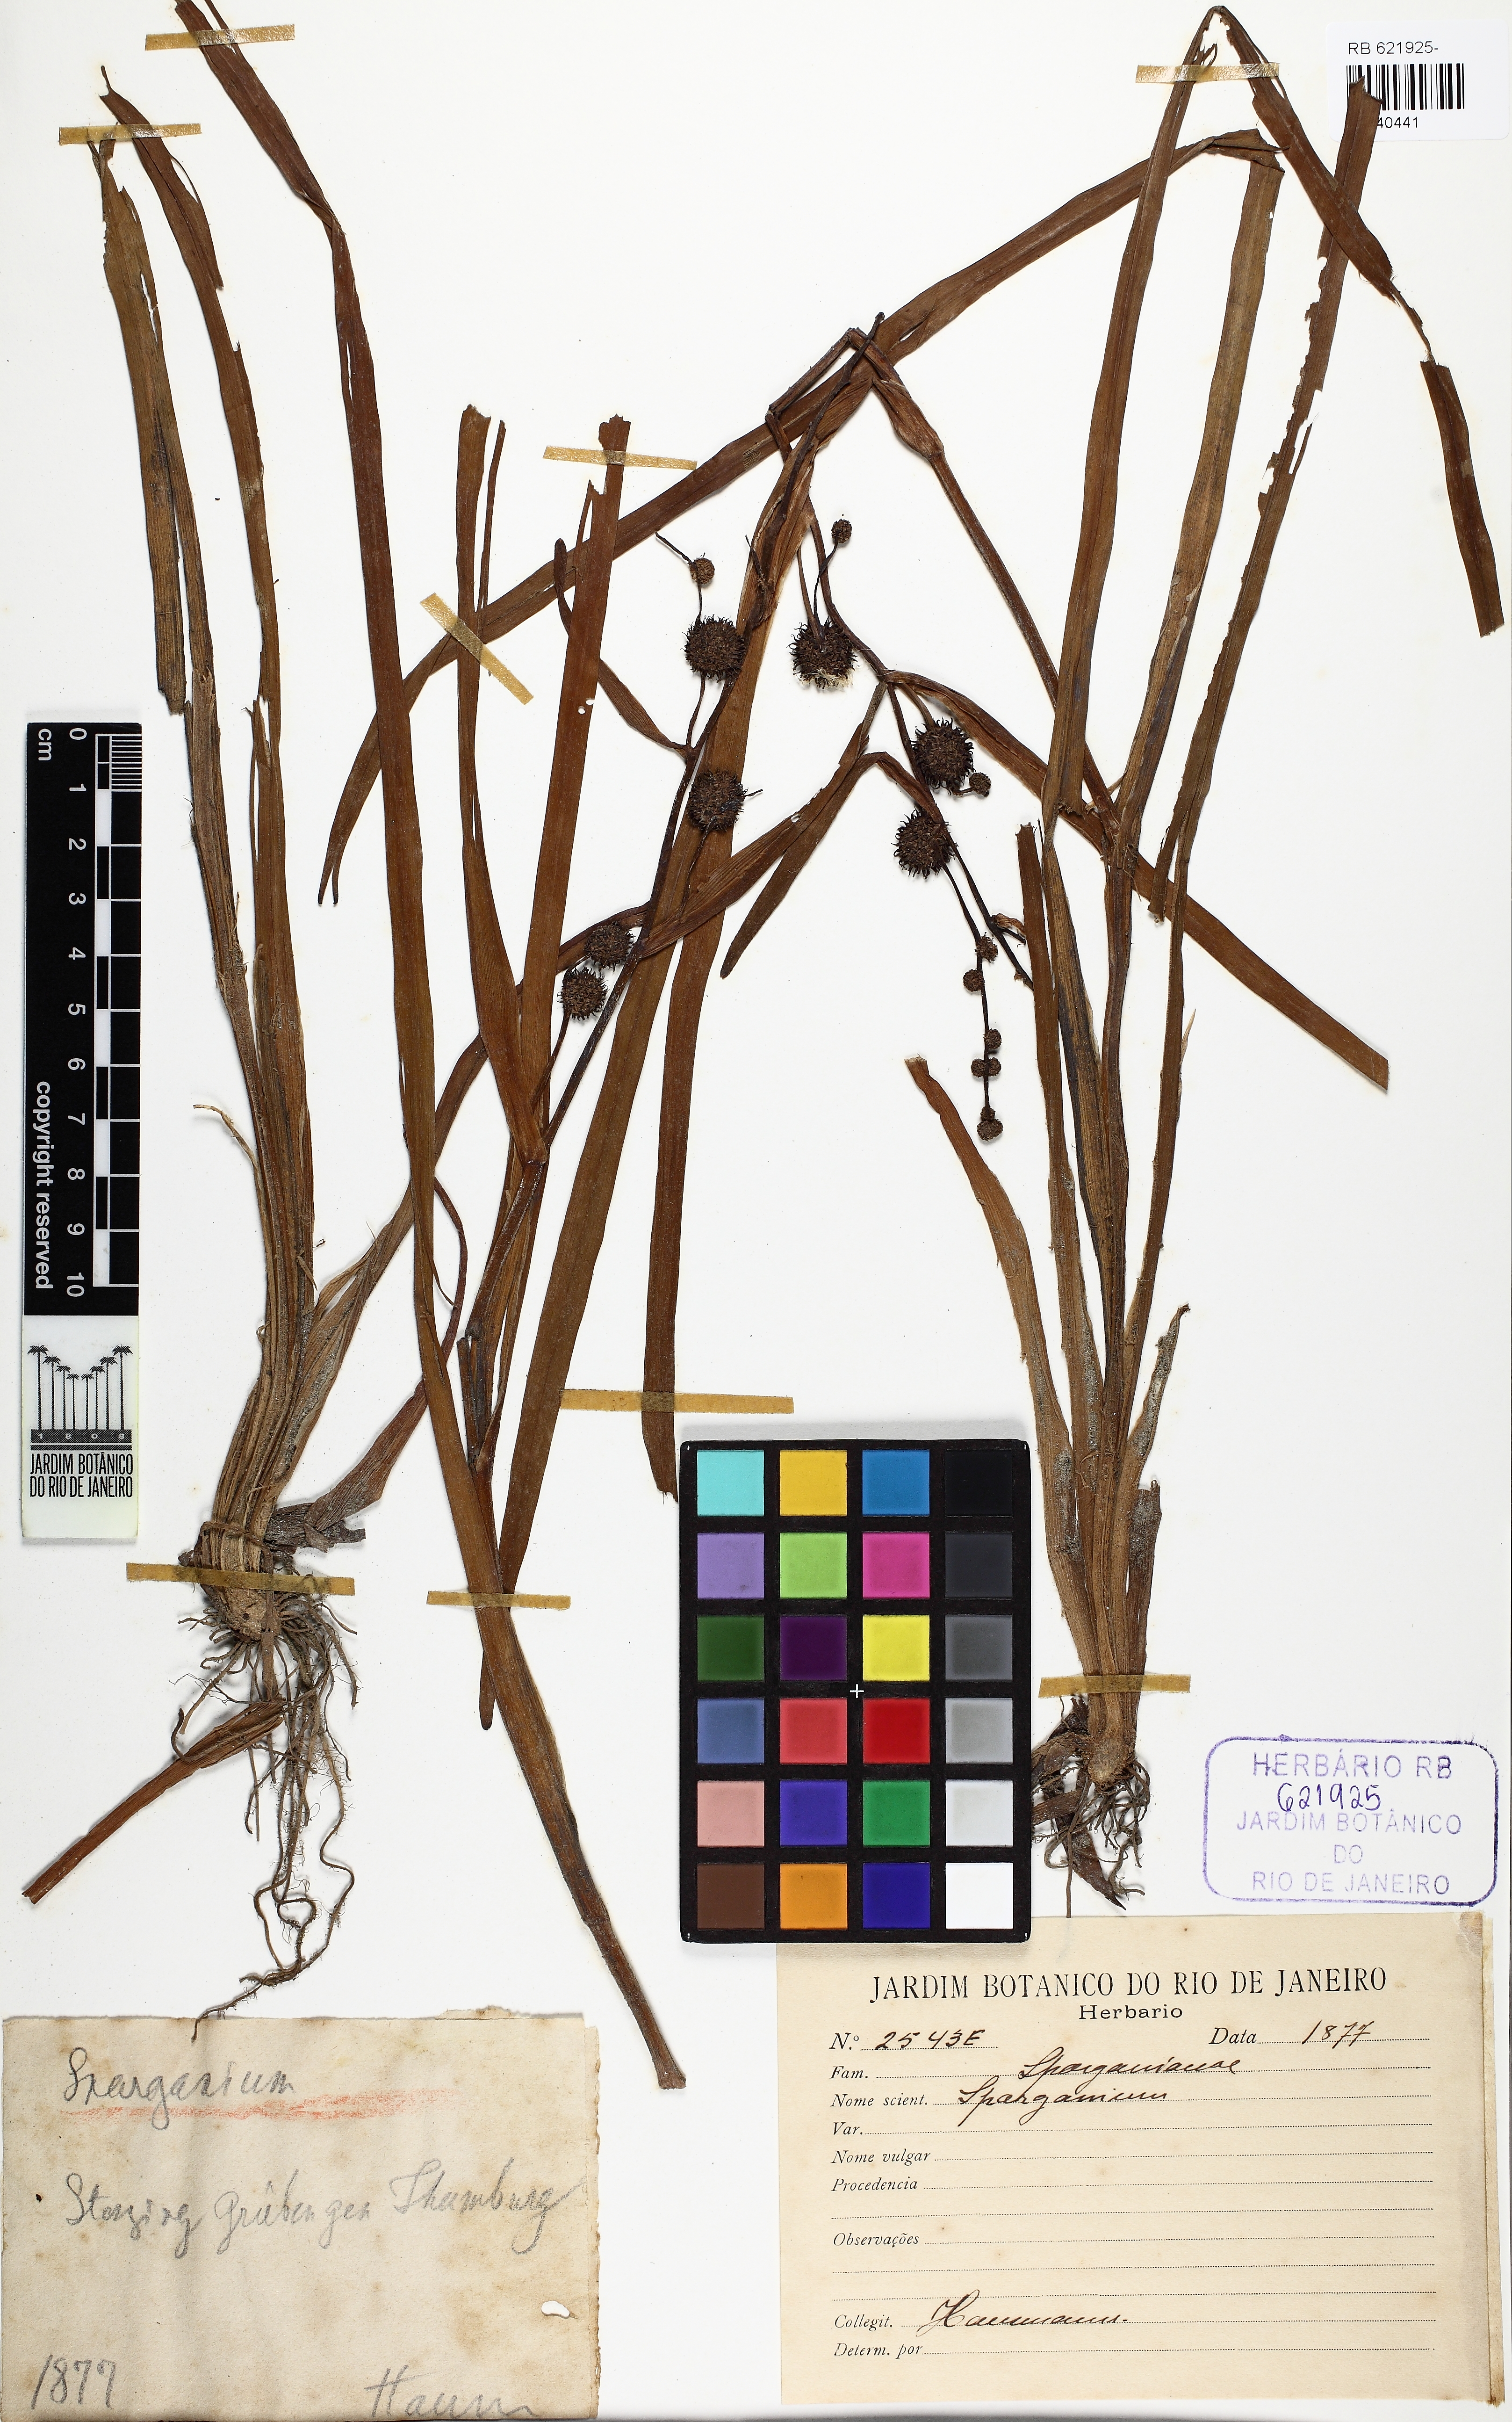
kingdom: Plantae
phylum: Tracheophyta
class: Liliopsida
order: Poales
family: Typhaceae
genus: Sparganium
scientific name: Sparganium
